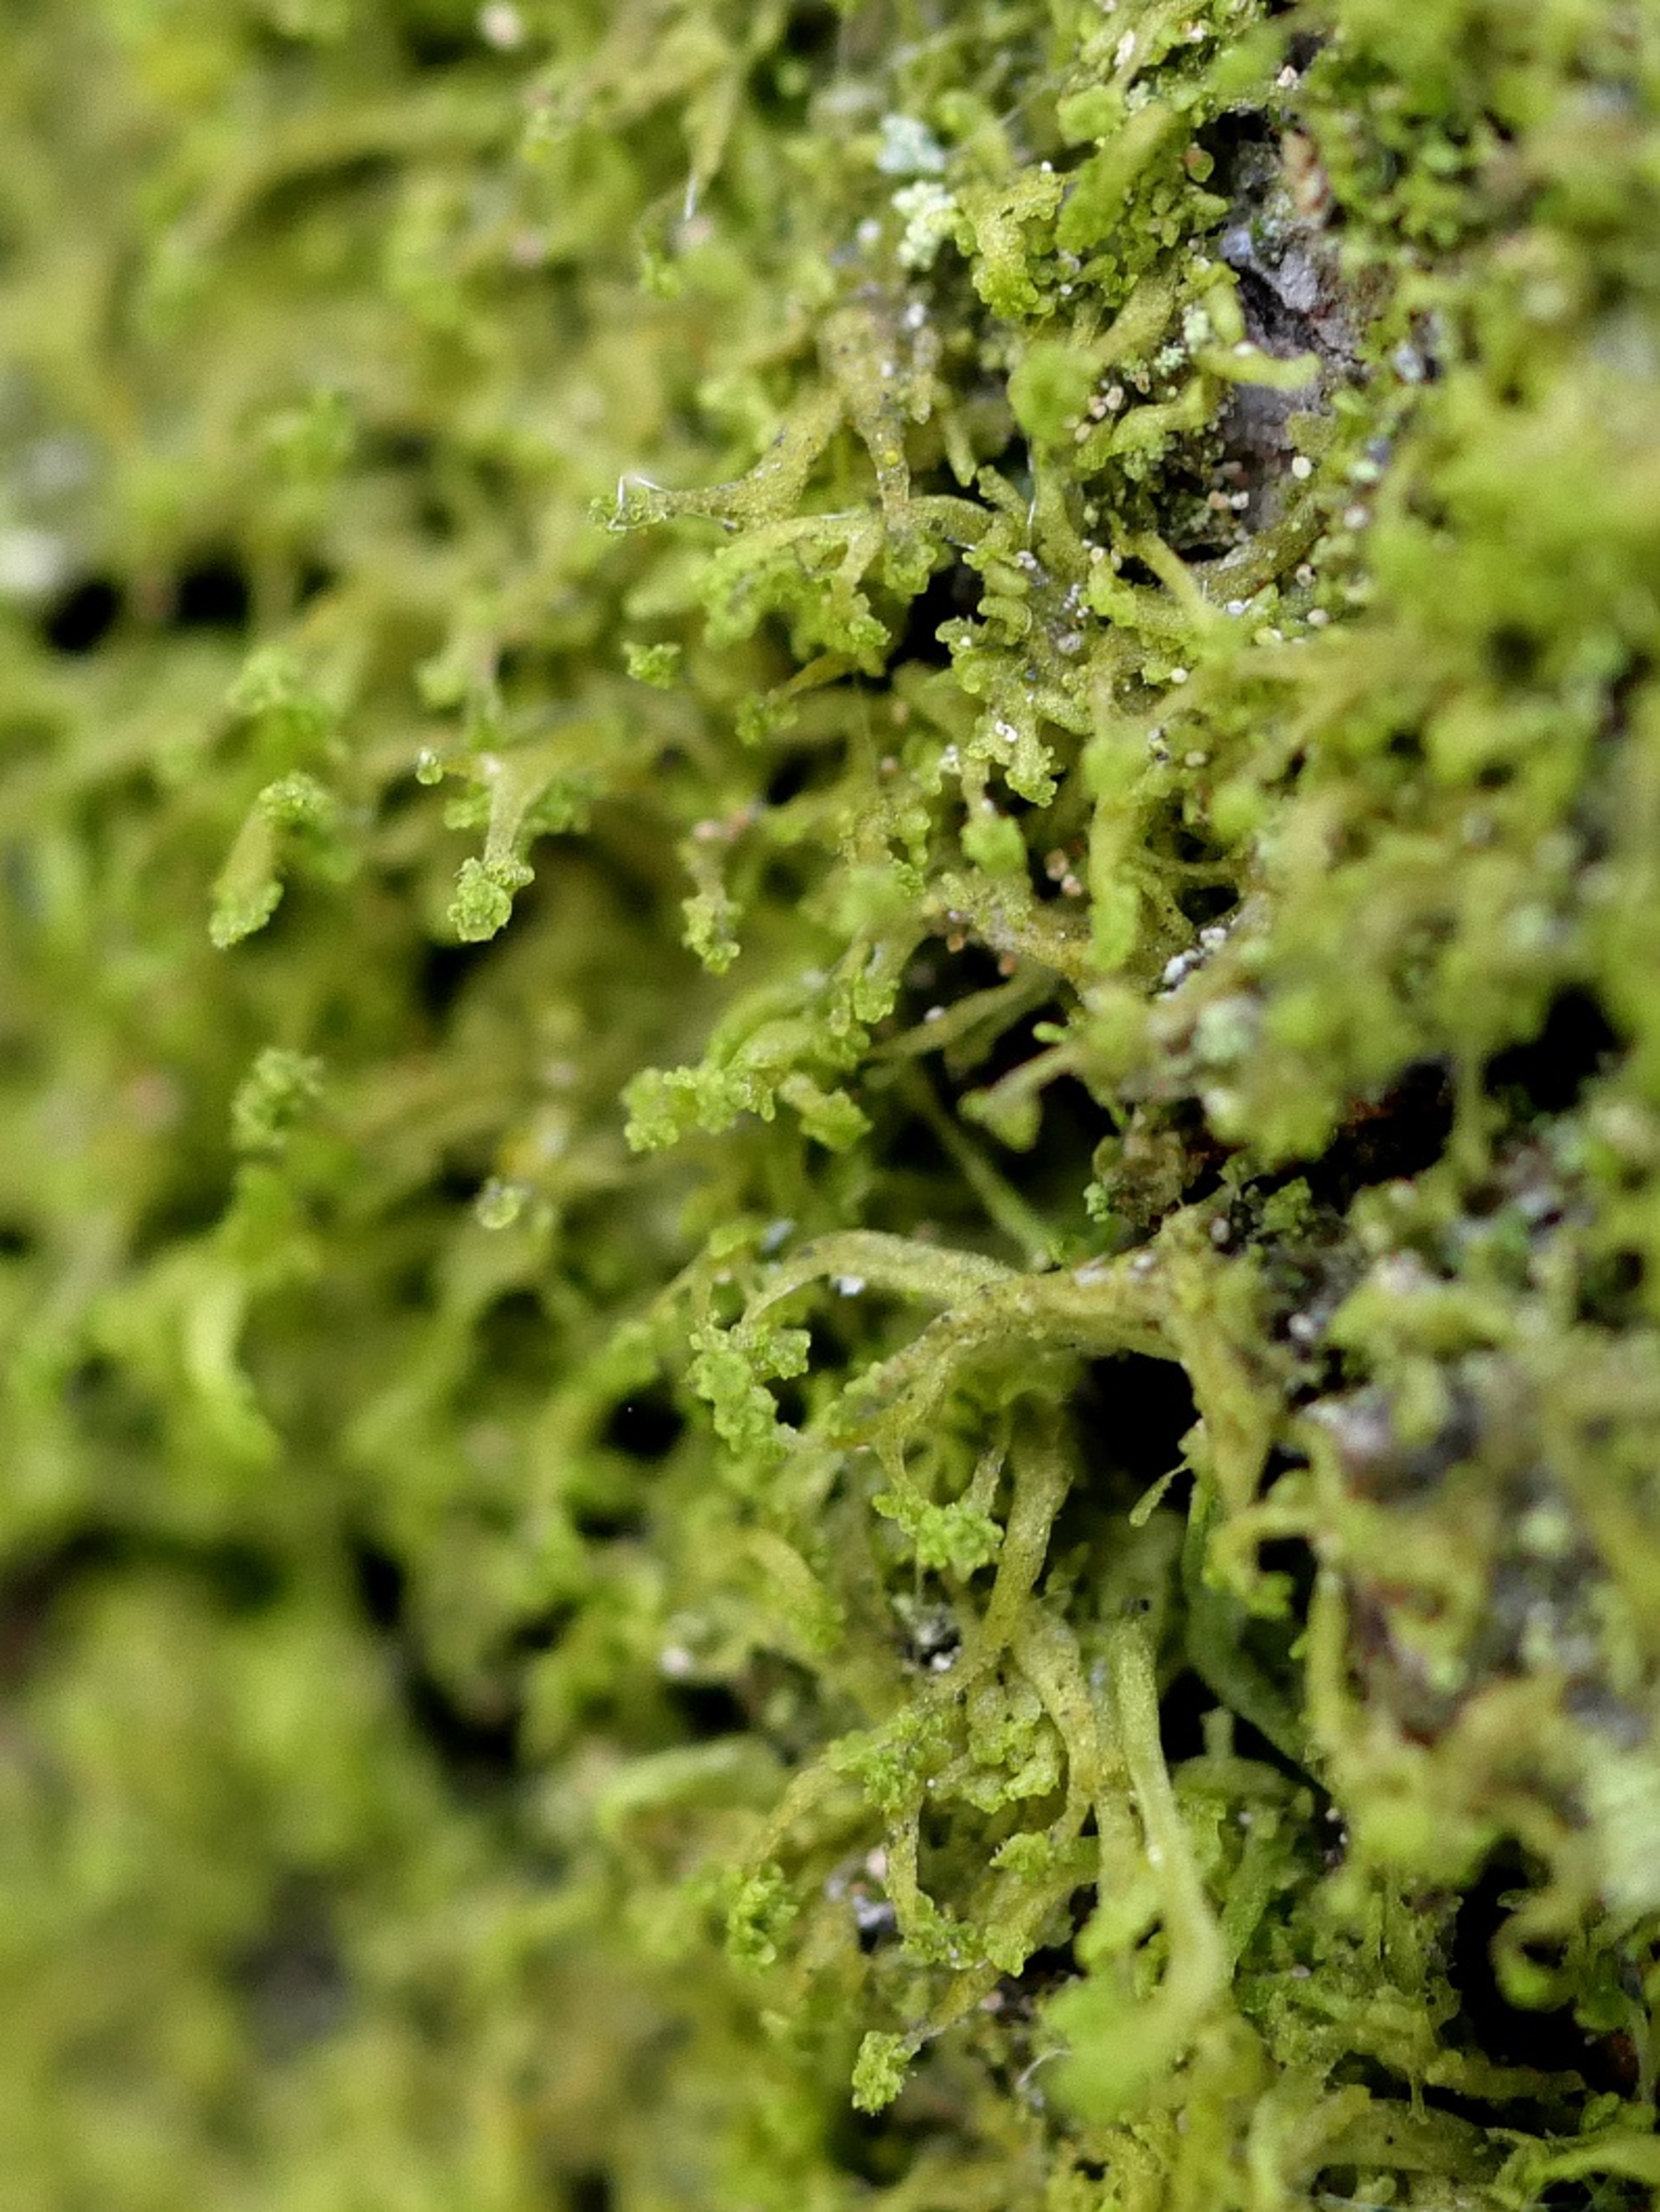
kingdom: Plantae
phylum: Marchantiophyta
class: Jungermanniopsida
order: Metzgeriales
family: Aneuraceae
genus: Riccardia
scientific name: Riccardia palmata
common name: Blågrøn gaffelløv
